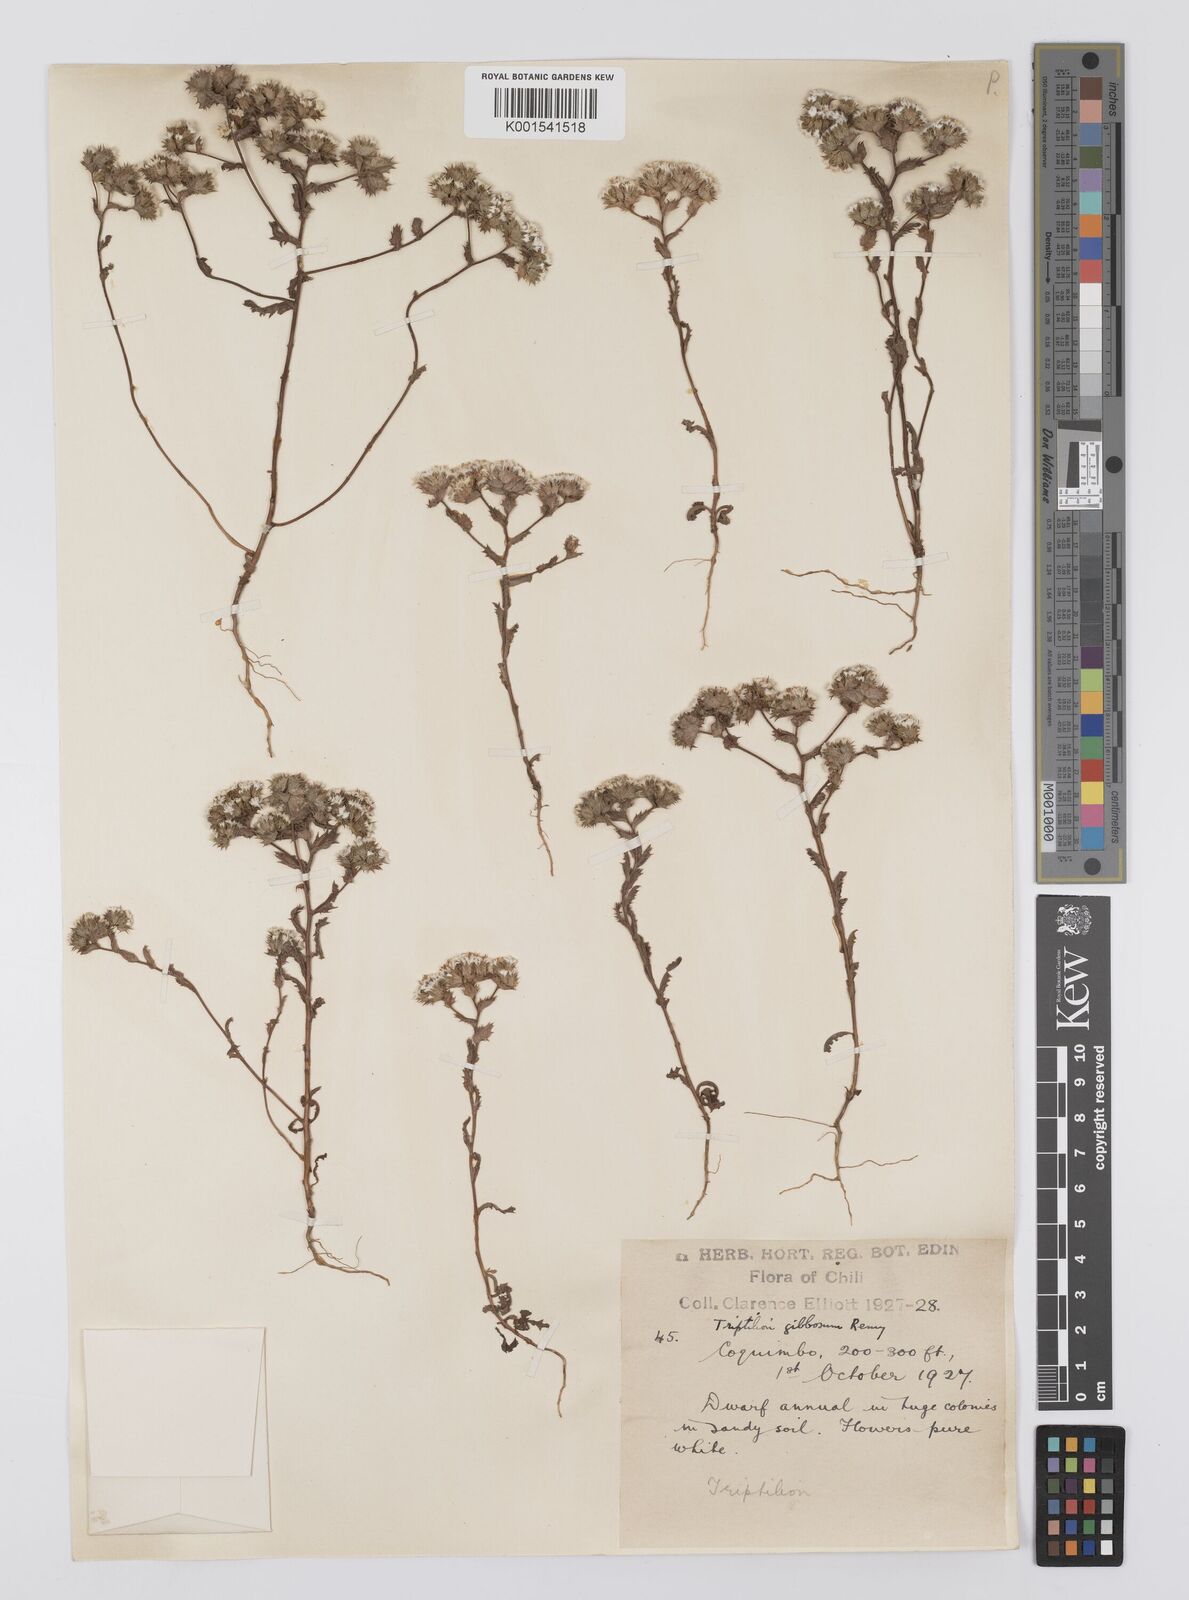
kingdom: Plantae
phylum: Tracheophyta
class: Magnoliopsida
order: Asterales
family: Asteraceae
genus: Triptilion
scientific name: Triptilion gibbosum
